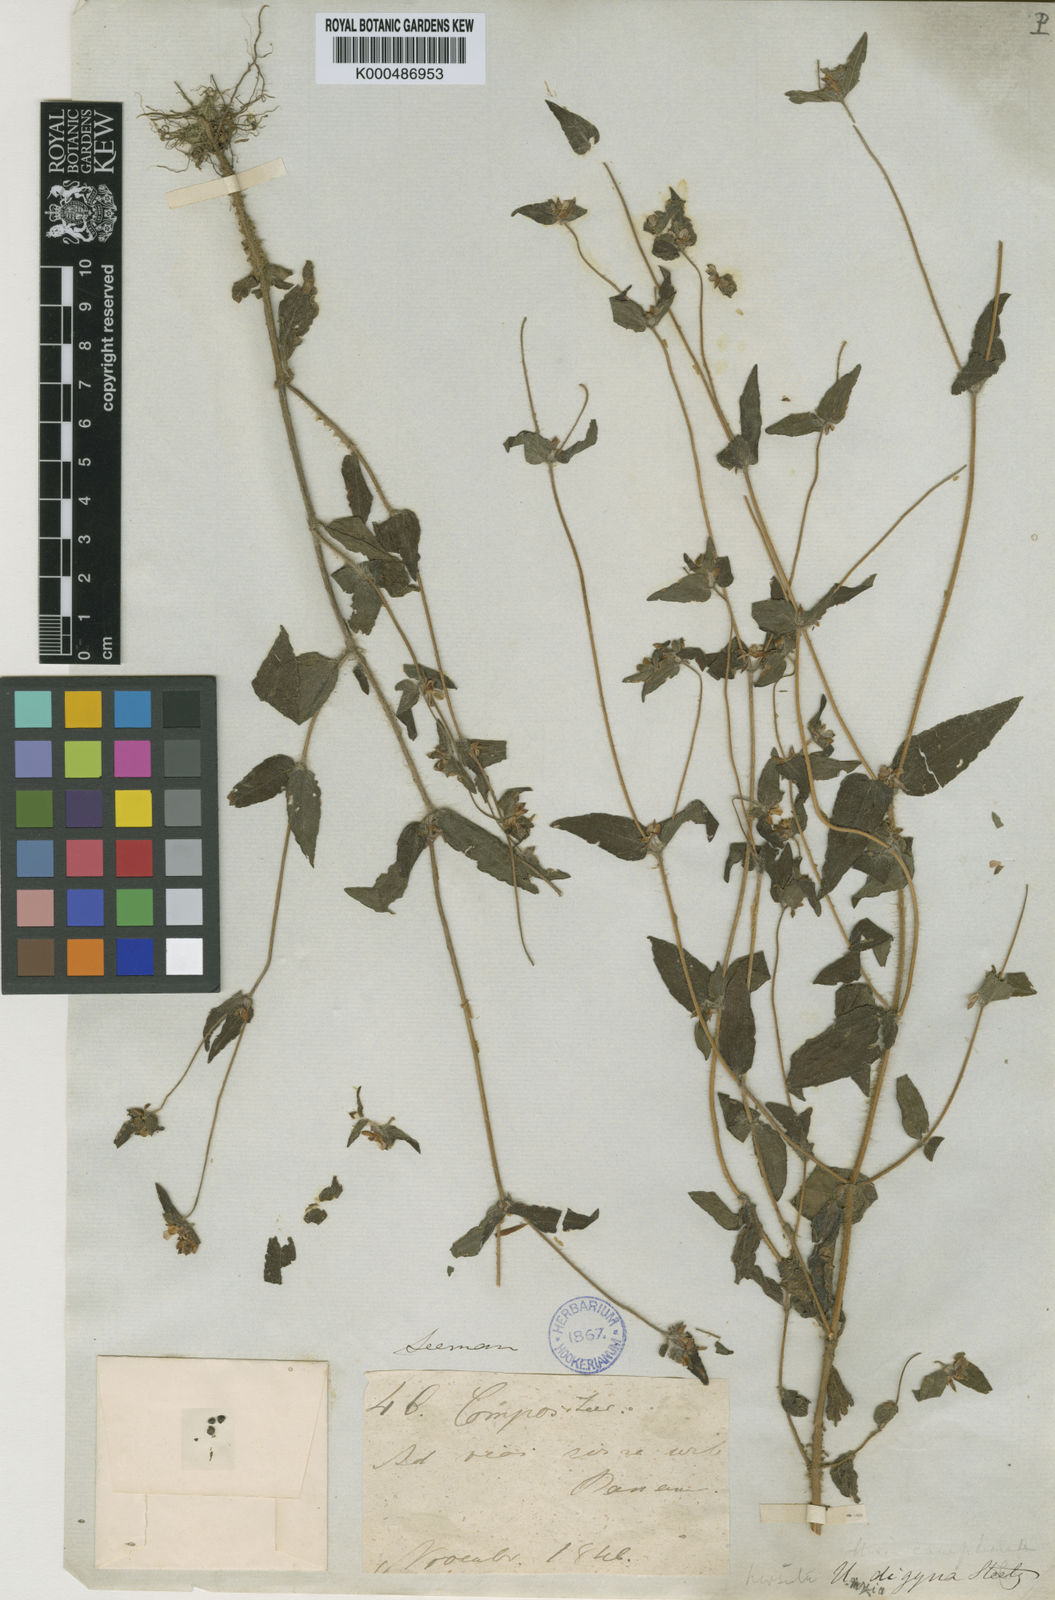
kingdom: Plantae
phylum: Tracheophyta
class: Magnoliopsida
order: Asterales
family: Asteraceae
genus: Unxia
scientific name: Unxia camphorata
